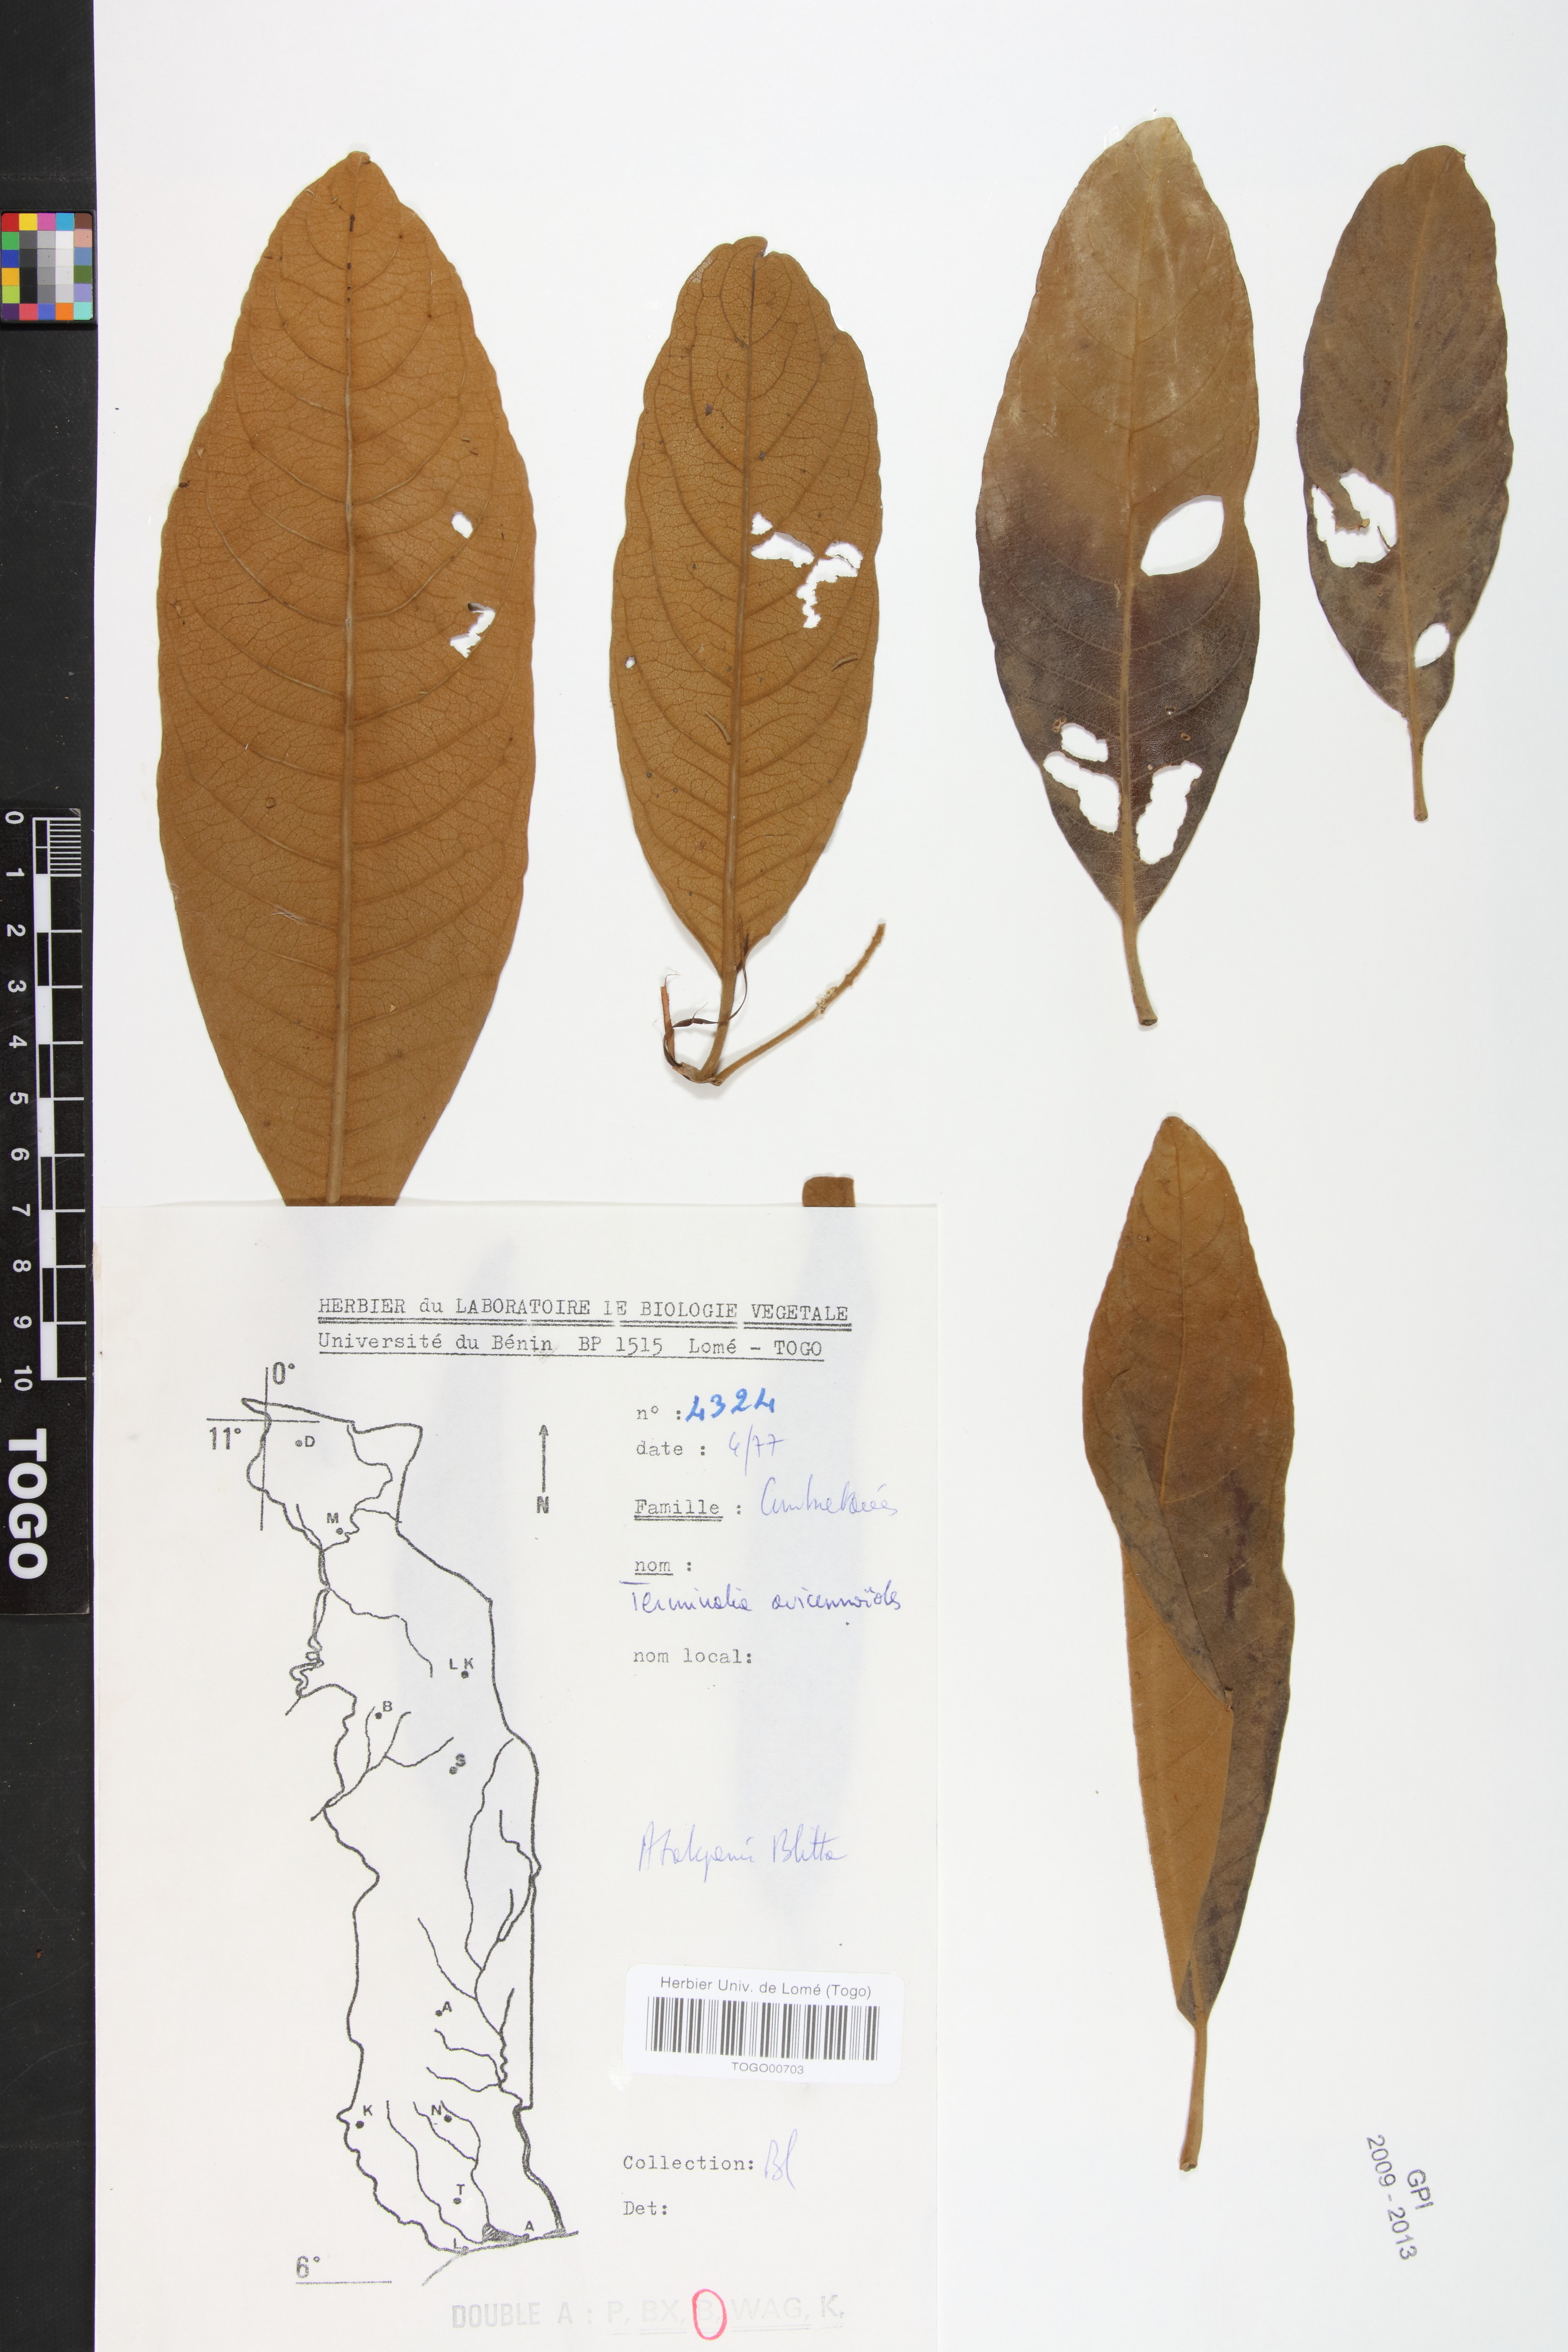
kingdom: Plantae
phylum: Tracheophyta
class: Magnoliopsida
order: Myrtales
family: Combretaceae
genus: Terminalia
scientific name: Terminalia avicennioides
